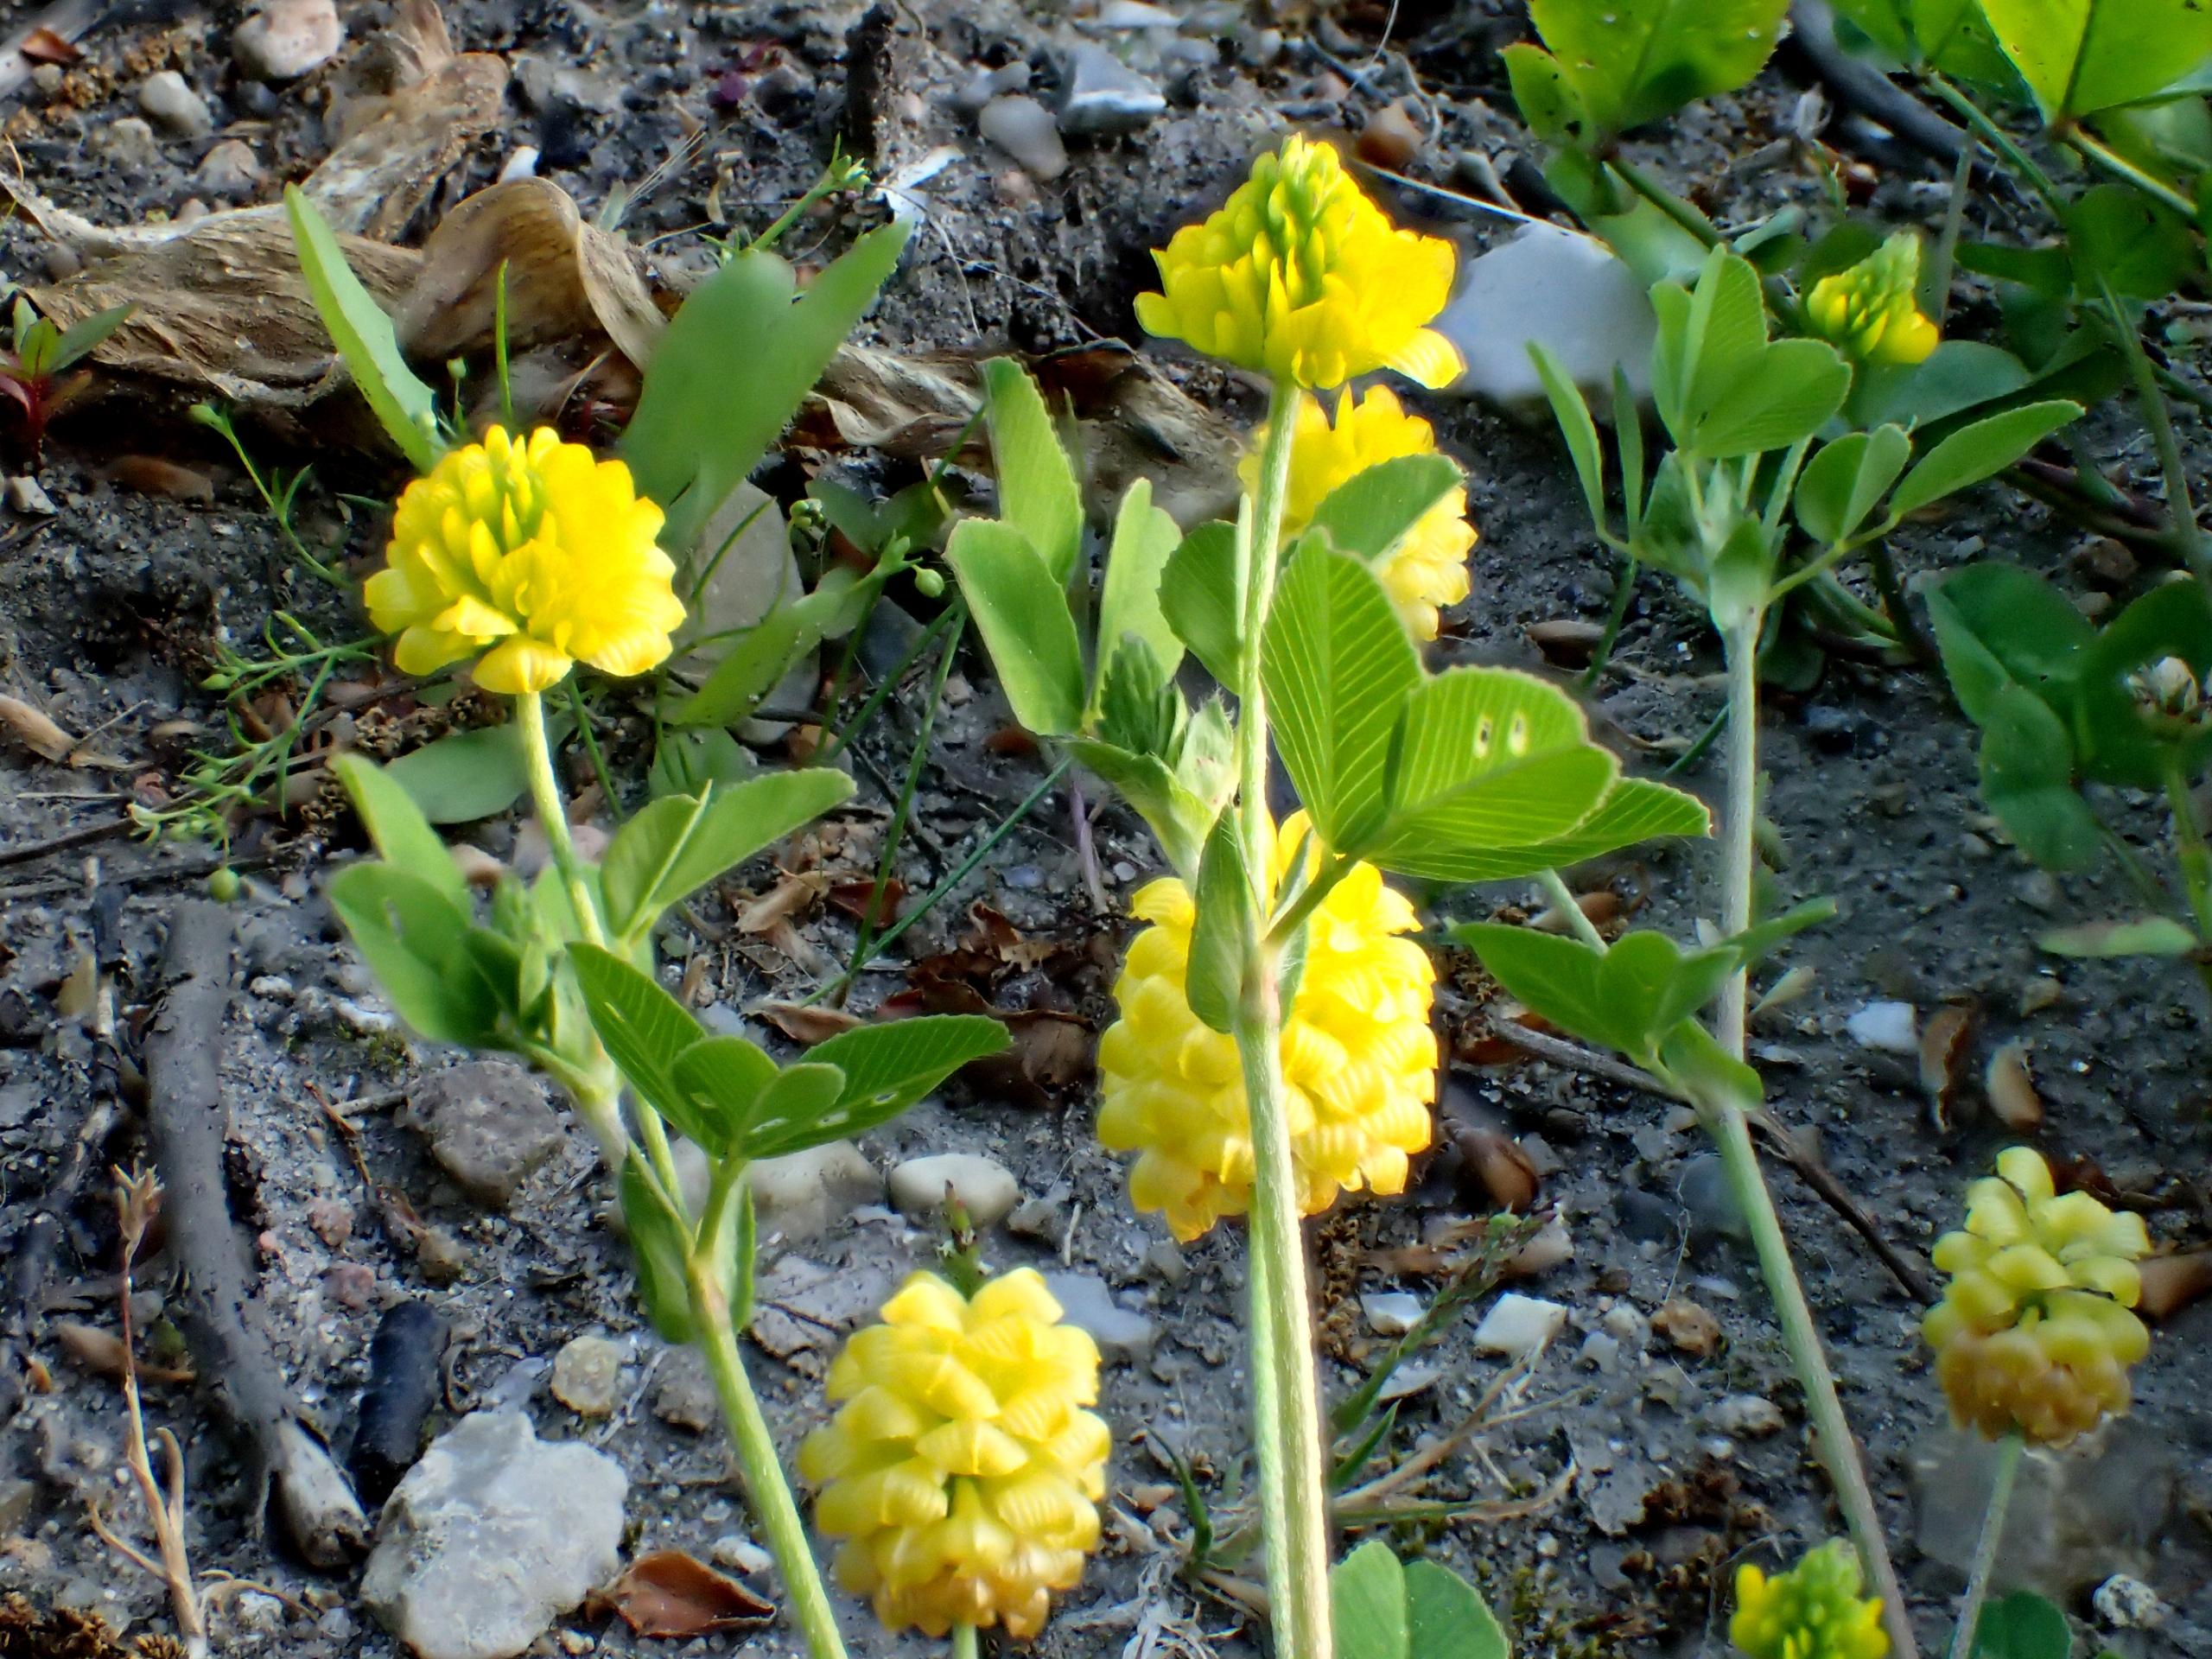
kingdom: Plantae
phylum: Tracheophyta
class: Magnoliopsida
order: Fabales
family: Fabaceae
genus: Trifolium
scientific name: Trifolium campestre
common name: Gul kløver
